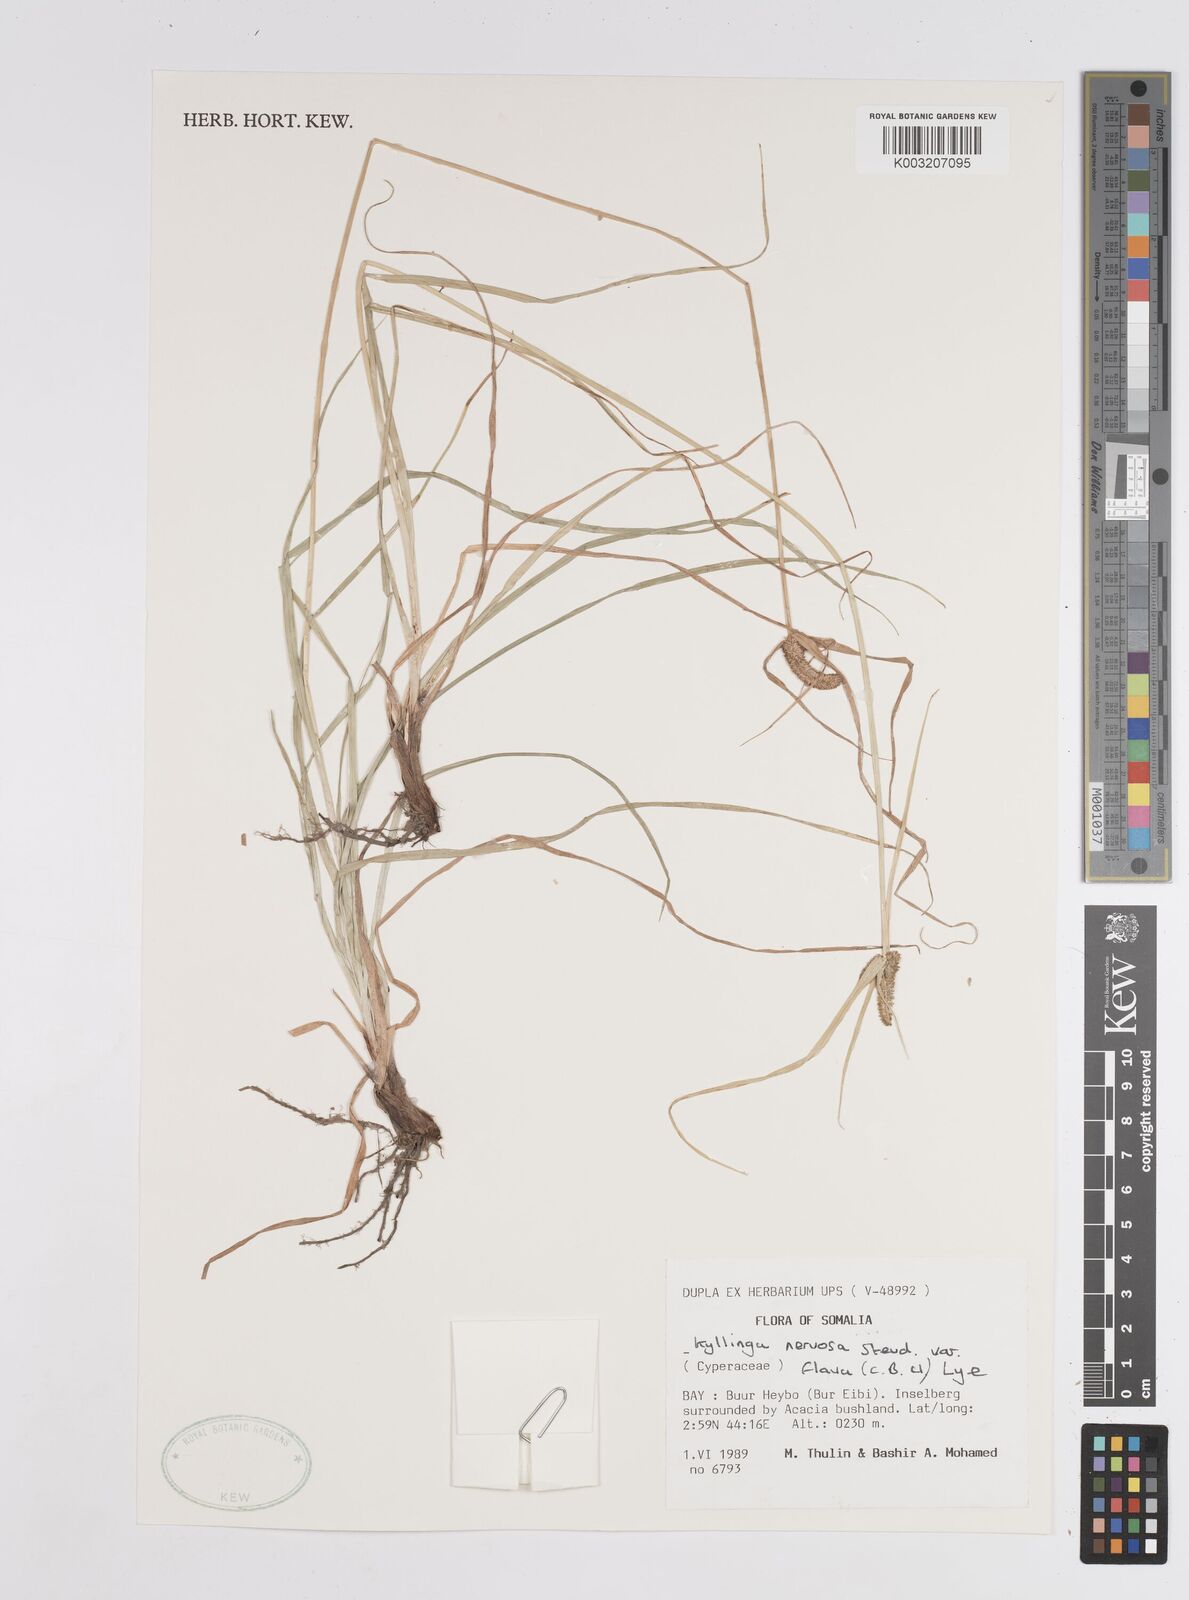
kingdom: Plantae
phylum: Tracheophyta
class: Liliopsida
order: Poales
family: Cyperaceae
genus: Cyperus
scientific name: Cyperus
